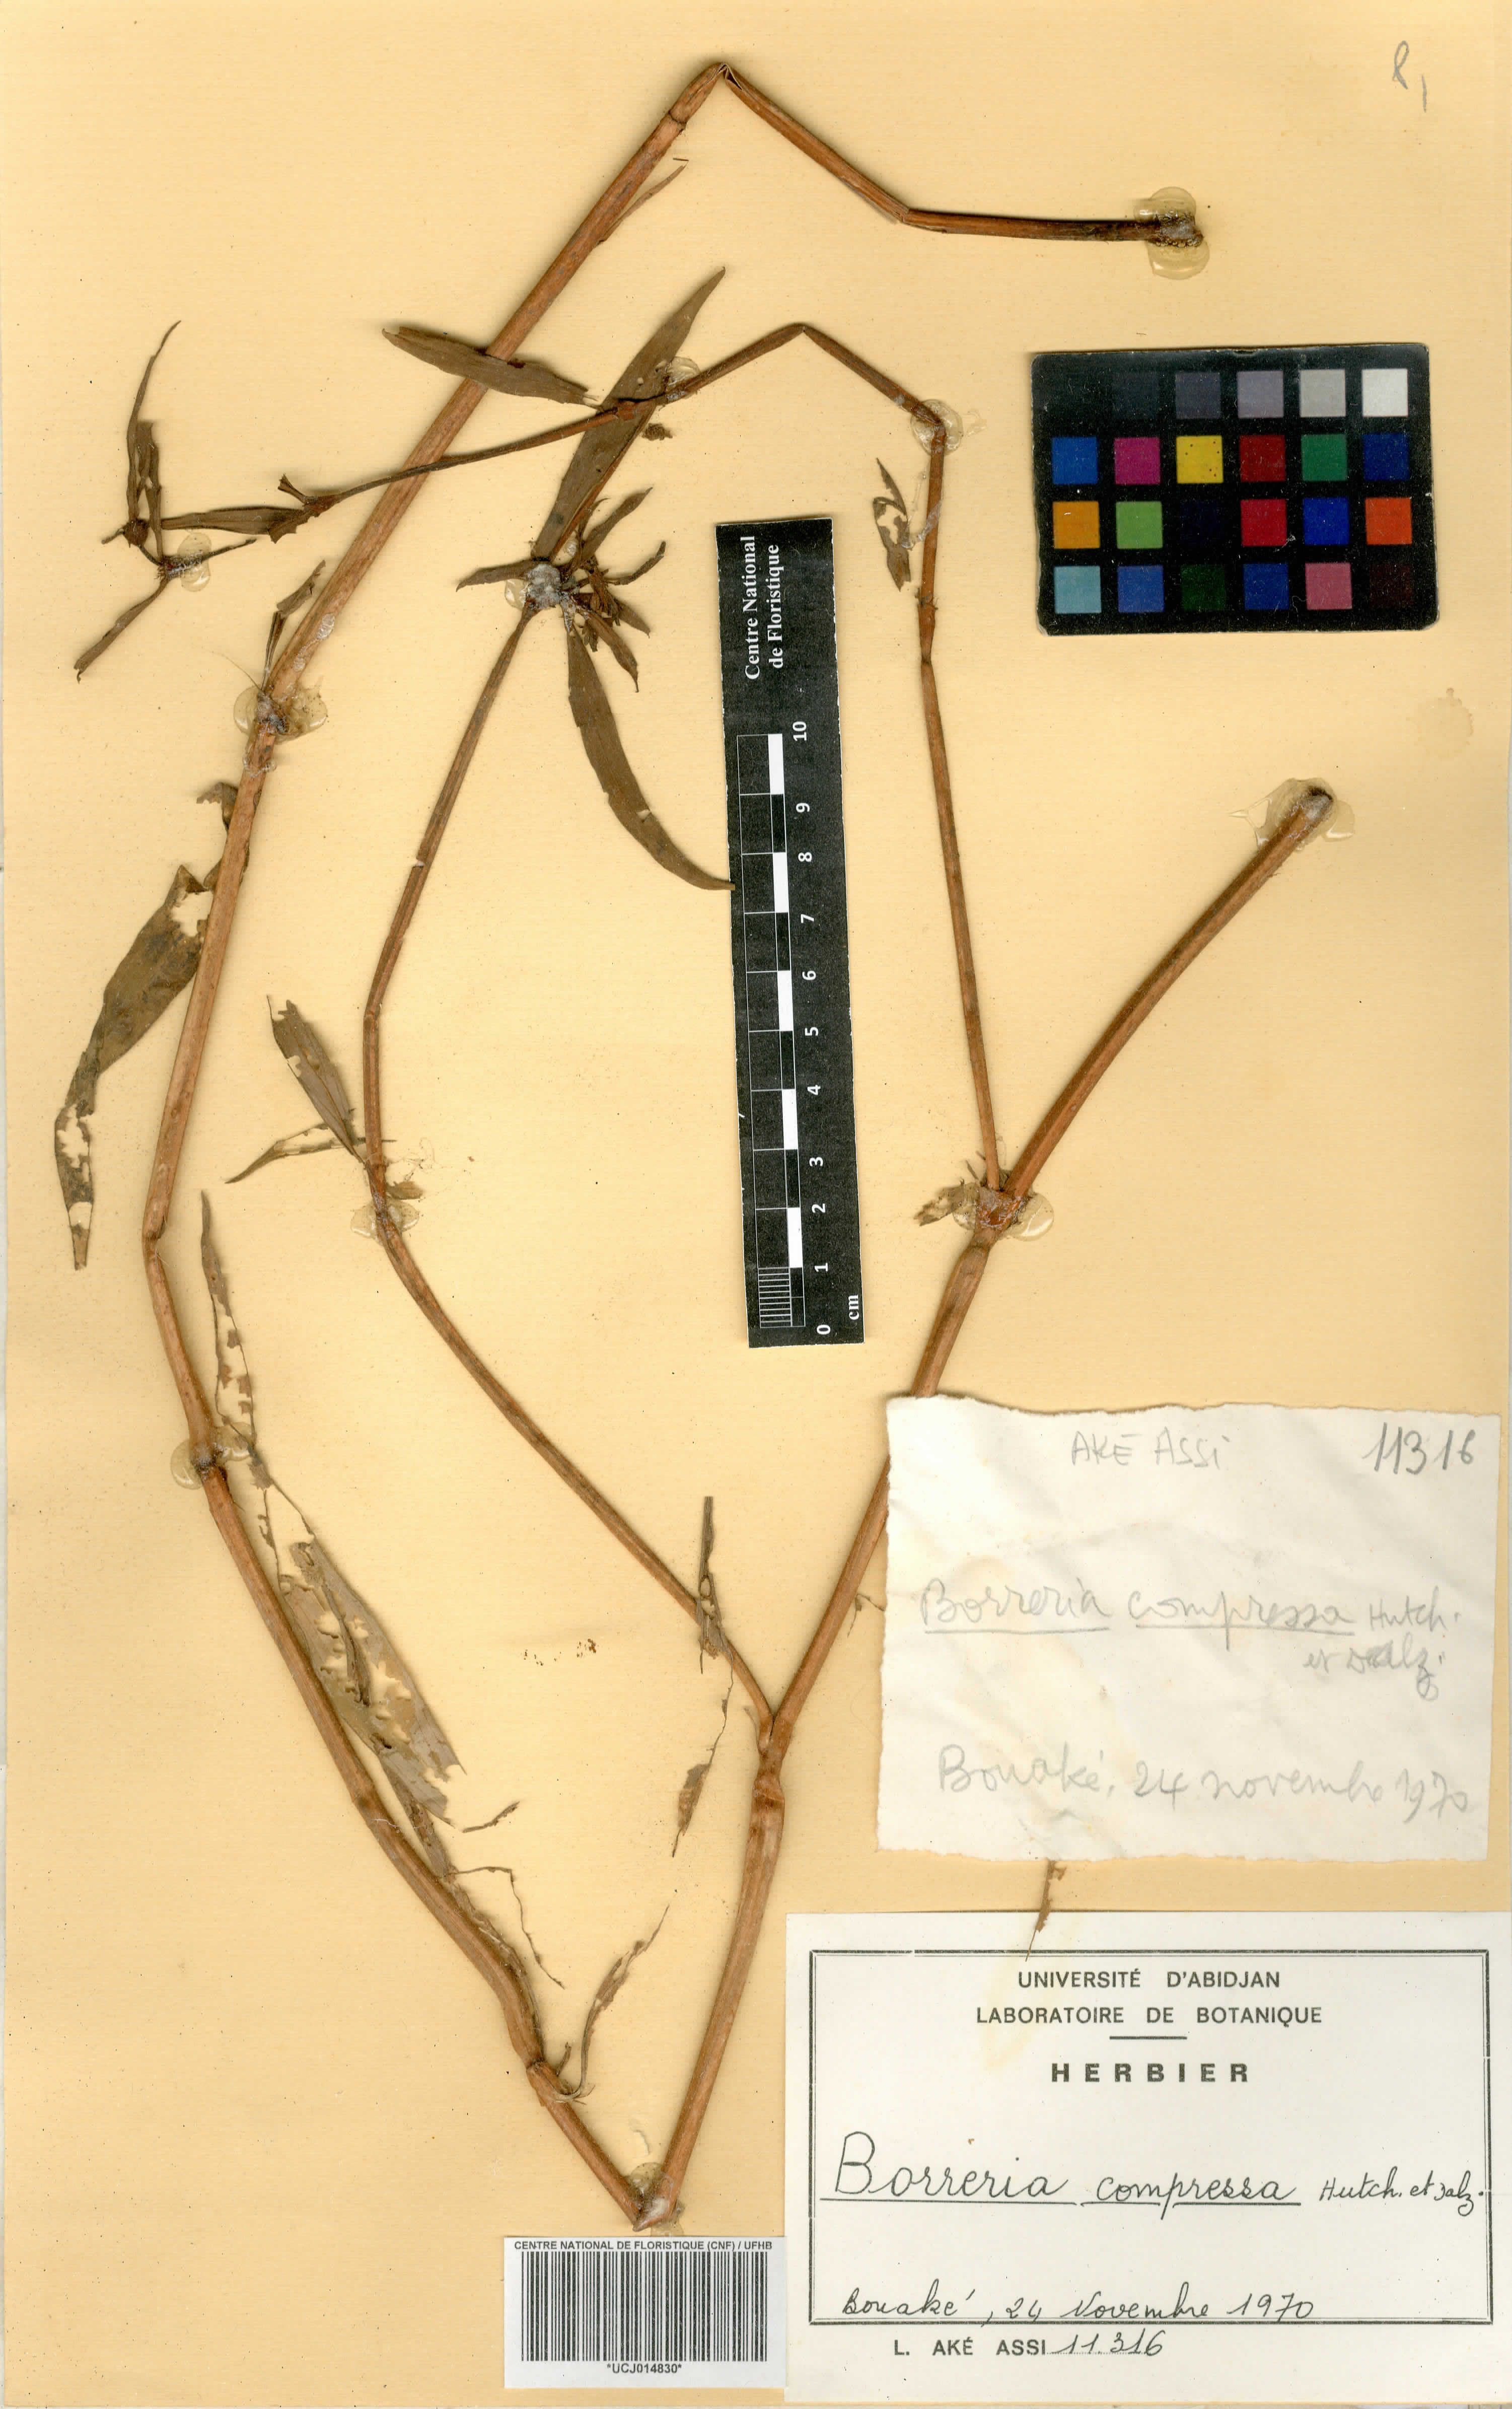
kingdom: Plantae
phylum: Tracheophyta
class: Magnoliopsida
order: Gentianales
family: Rubiaceae
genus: Spermacoce
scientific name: Spermacoce hepperiana
